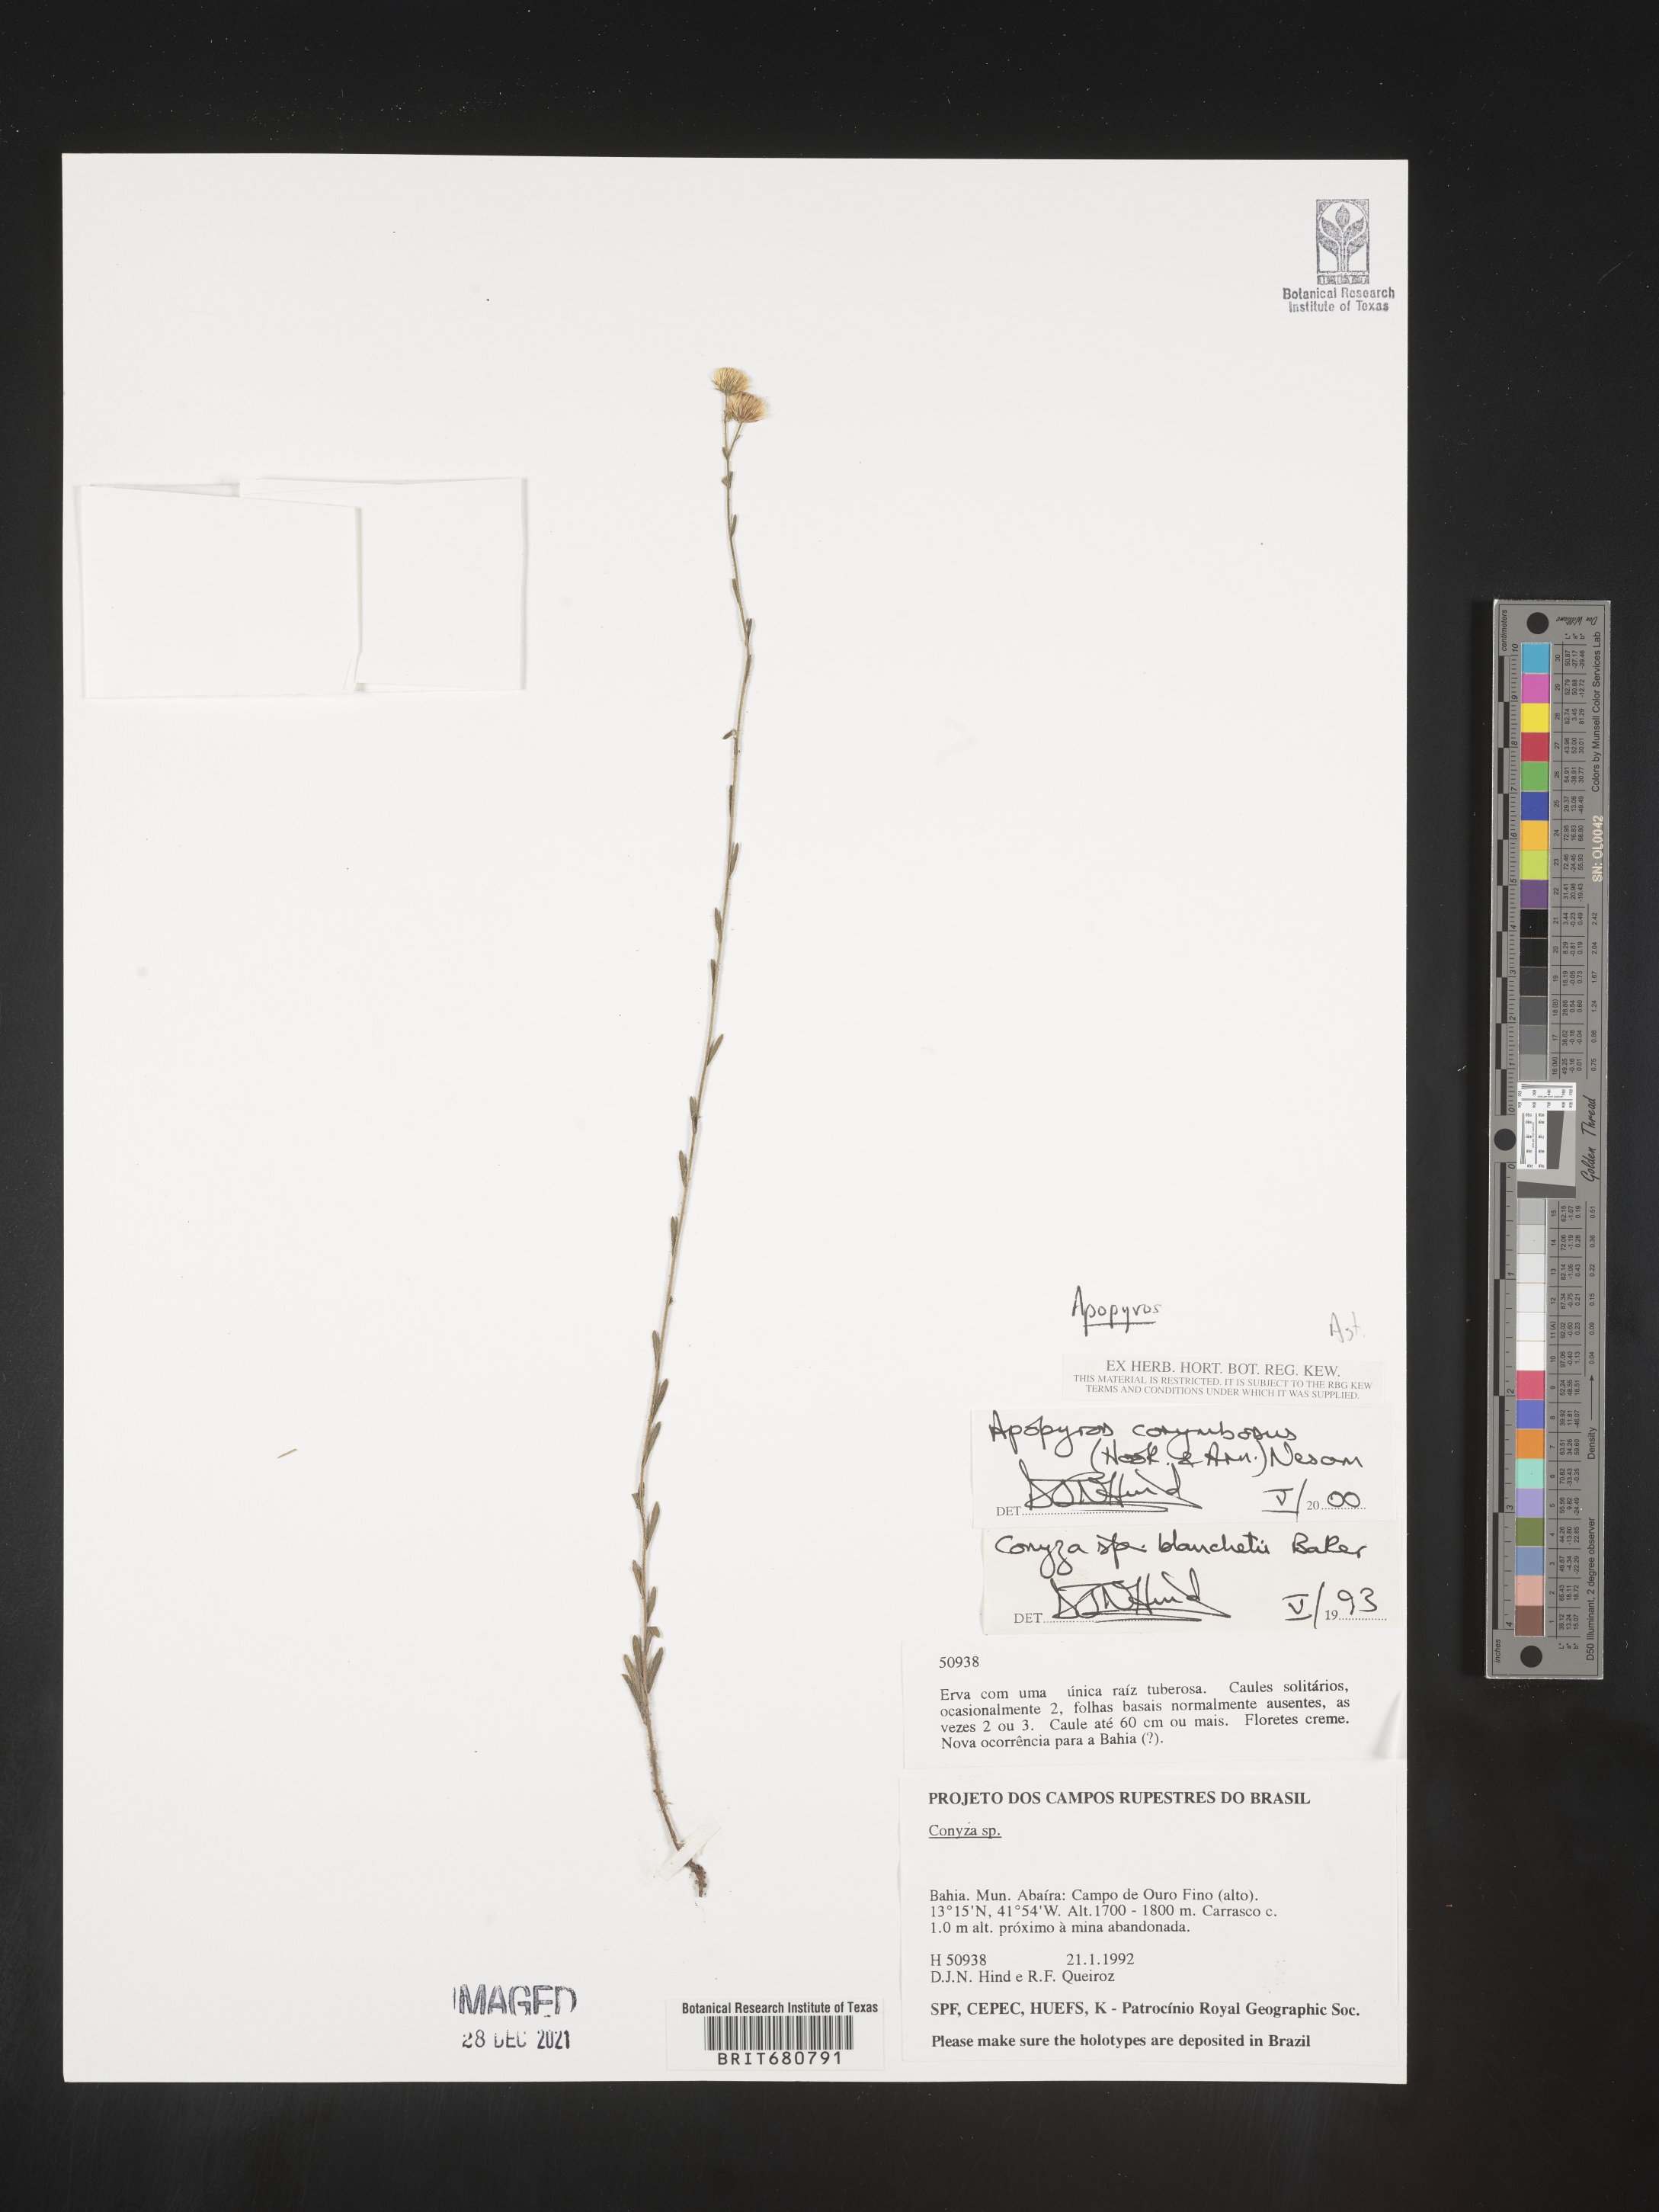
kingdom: Plantae
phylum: Tracheophyta
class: Magnoliopsida
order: Asterales
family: Asteraceae
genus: Apopyros
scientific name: Apopyros
